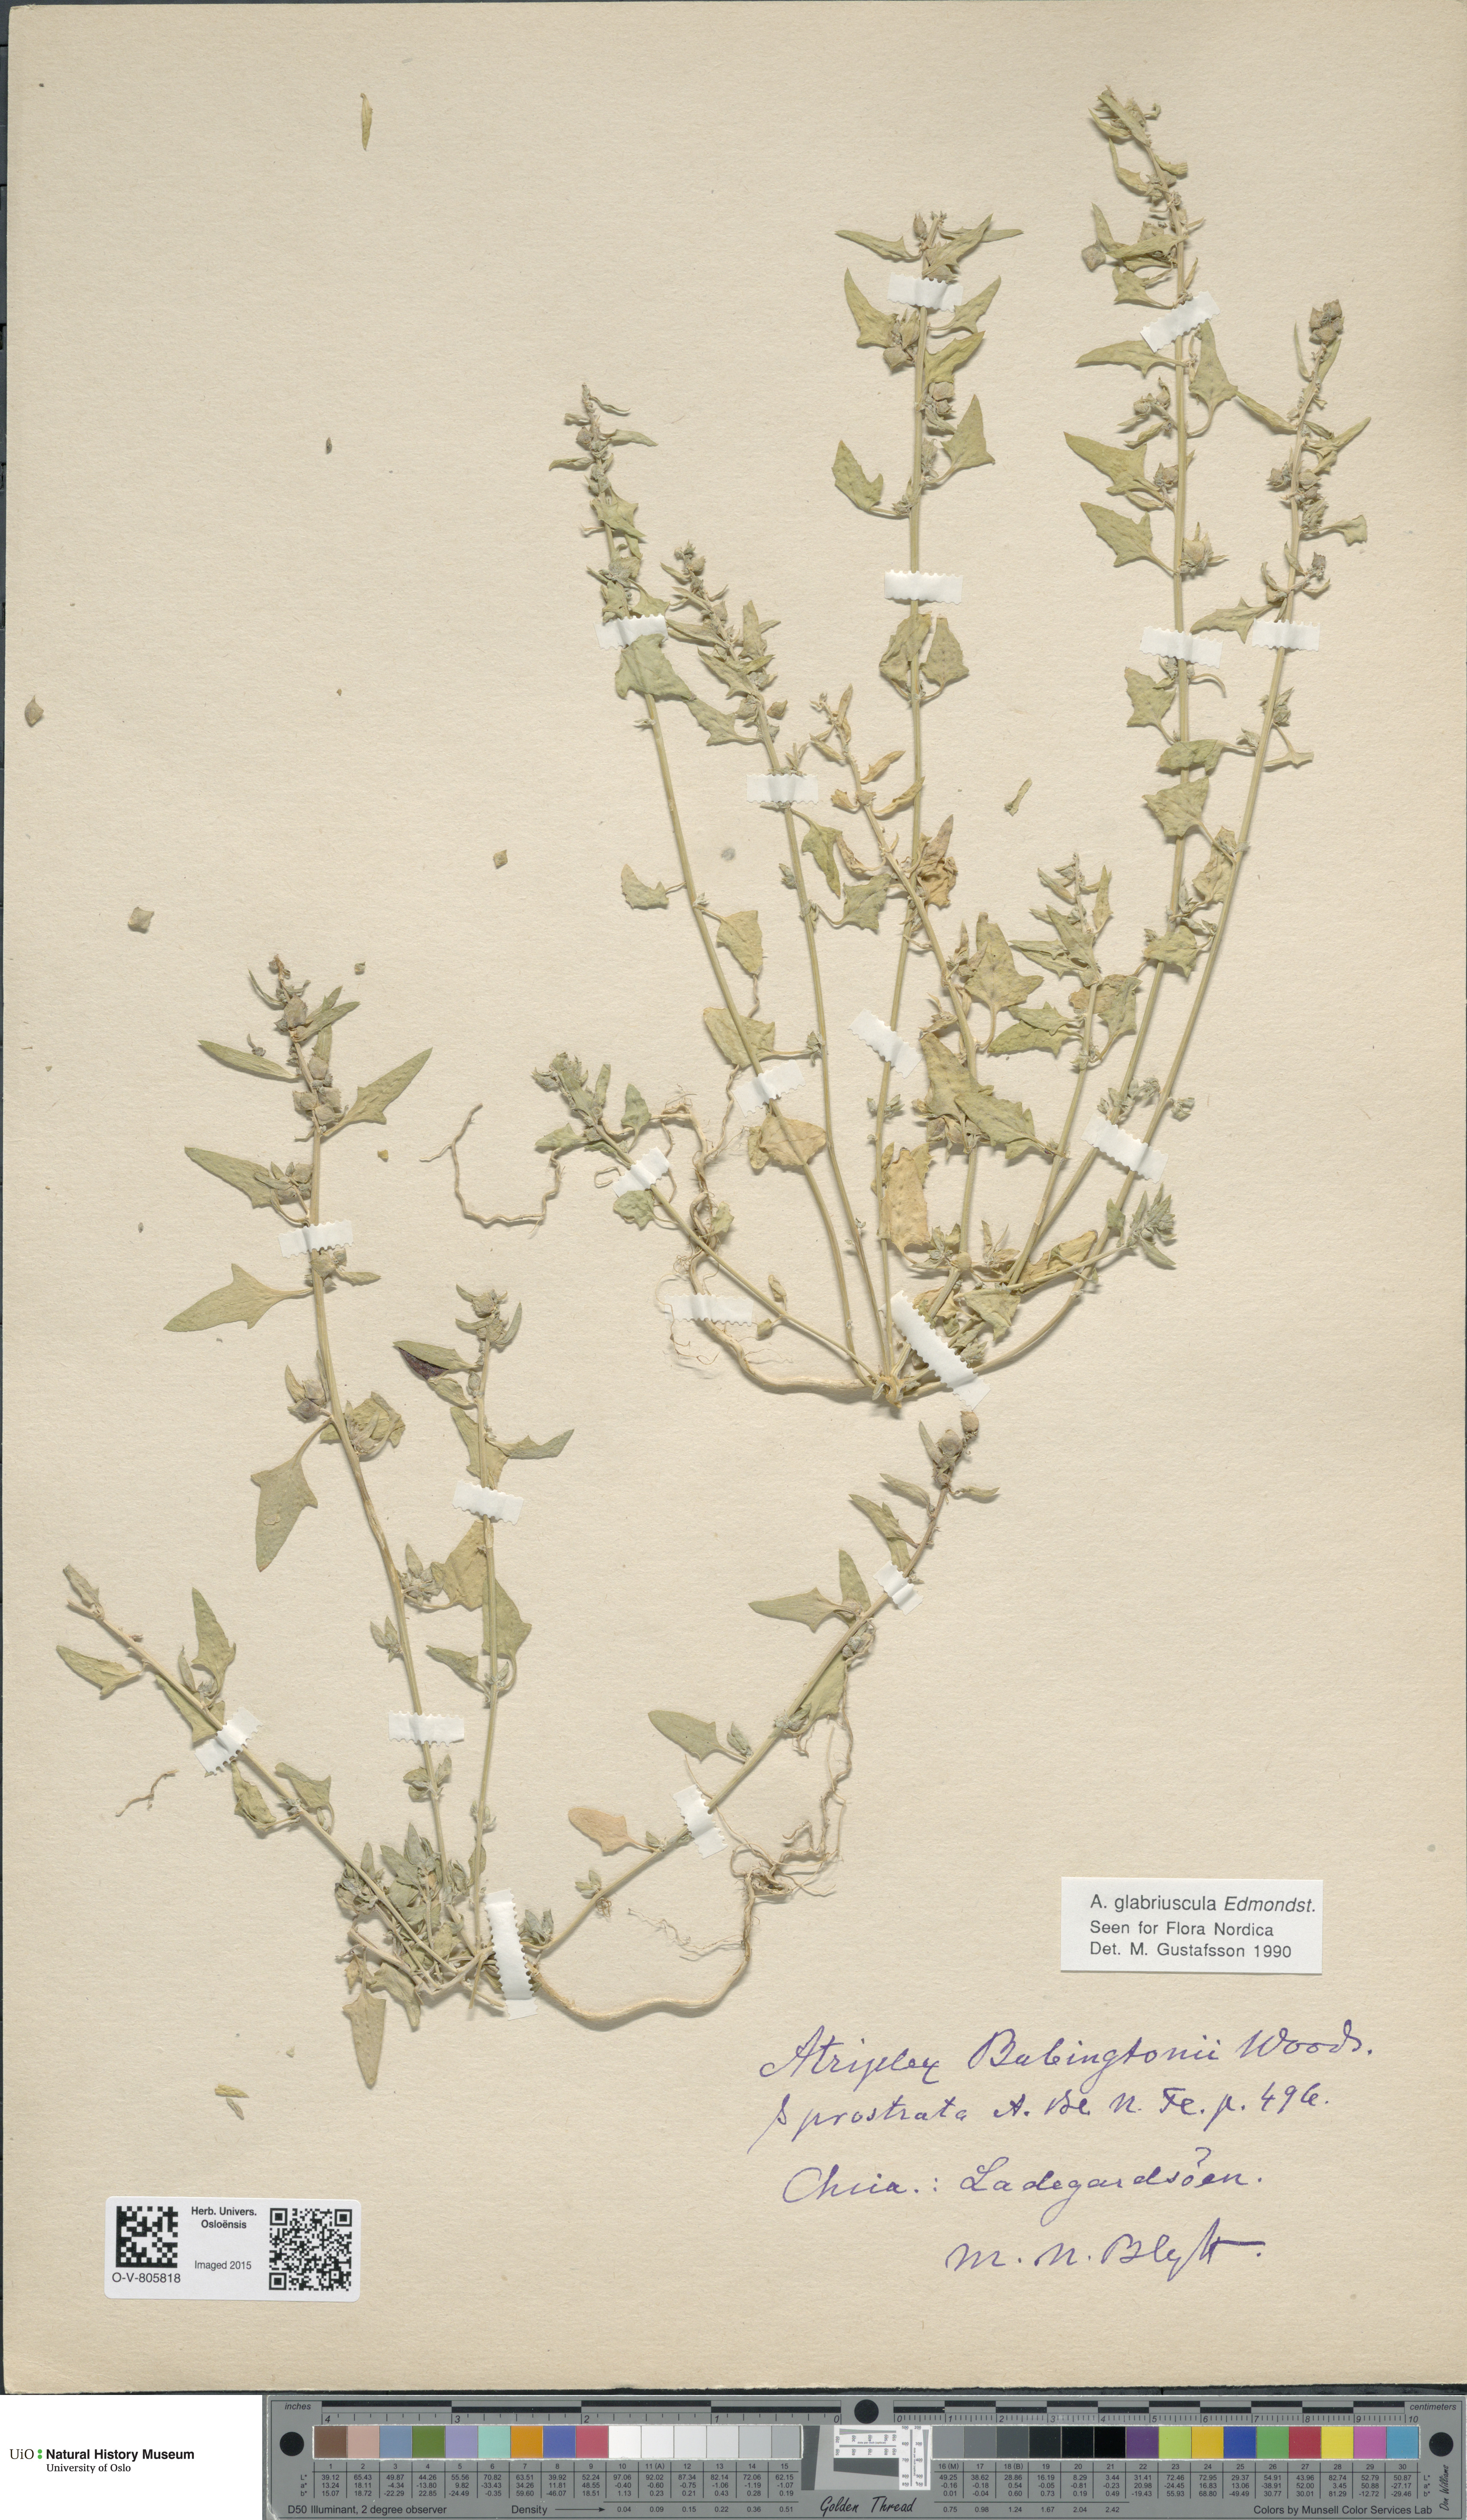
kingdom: Plantae
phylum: Tracheophyta
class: Magnoliopsida
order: Caryophyllales
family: Amaranthaceae
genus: Atriplex
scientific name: Atriplex glabriuscula
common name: Babington's orache
